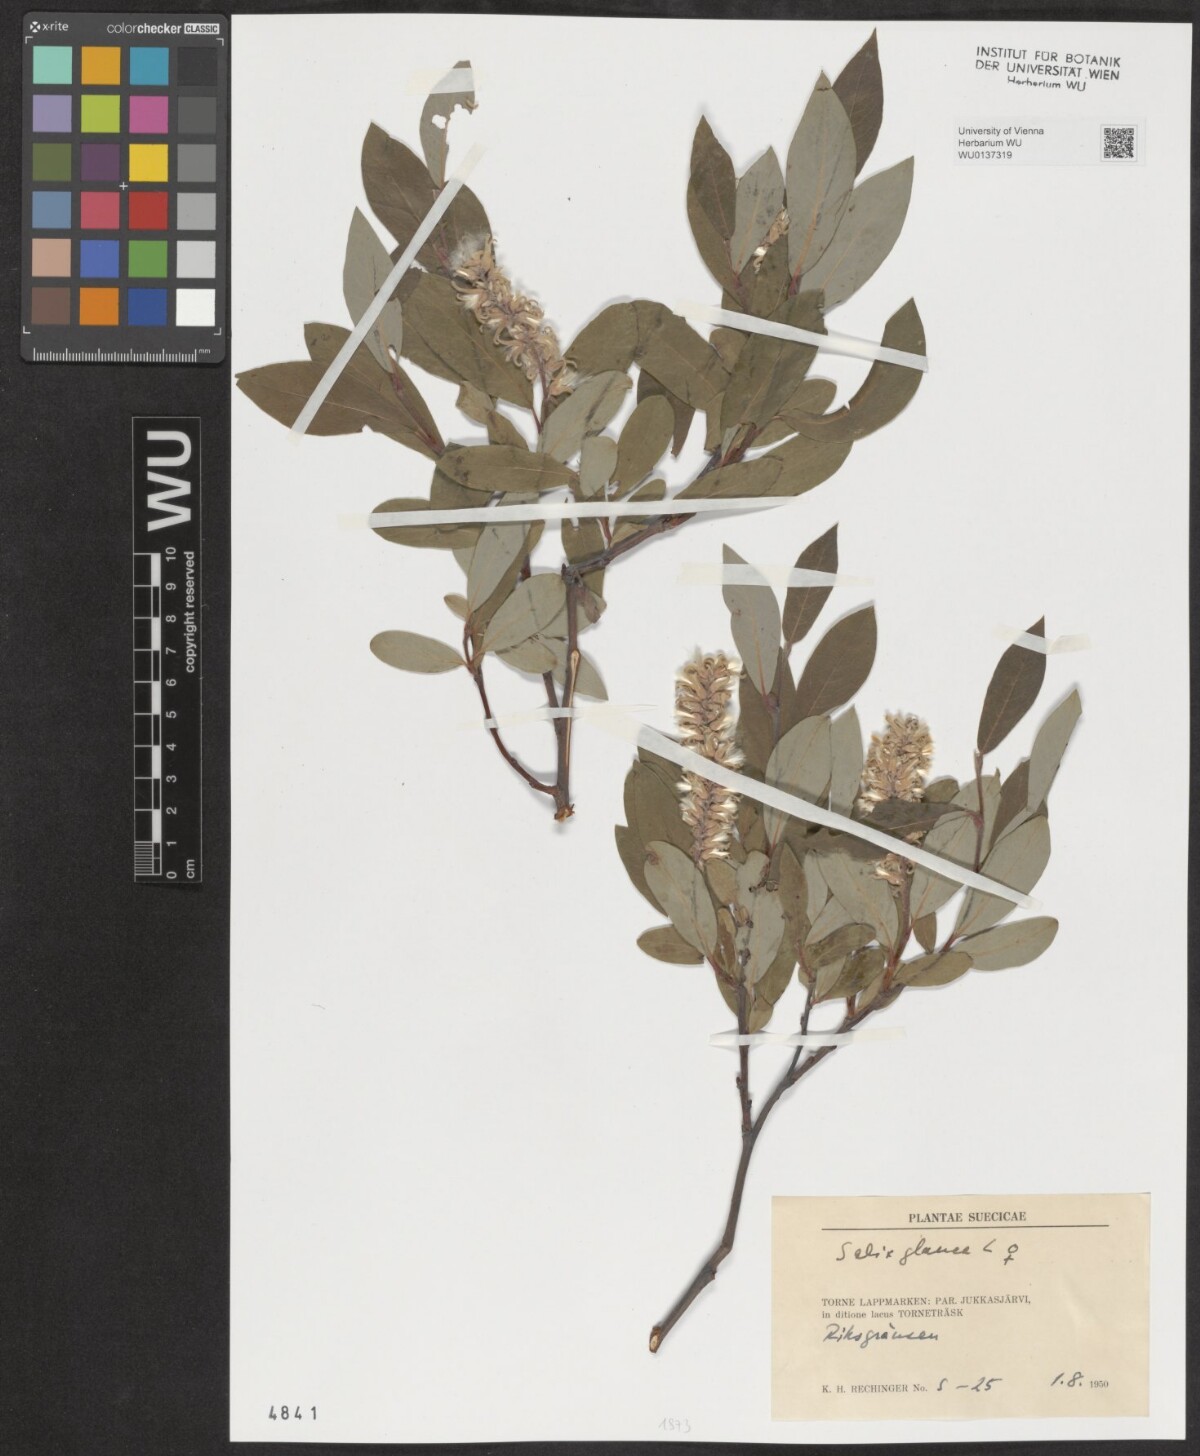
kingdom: Plantae
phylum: Tracheophyta
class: Magnoliopsida
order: Malpighiales
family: Salicaceae
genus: Salix
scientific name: Salix glauca
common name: Glaucous willow
